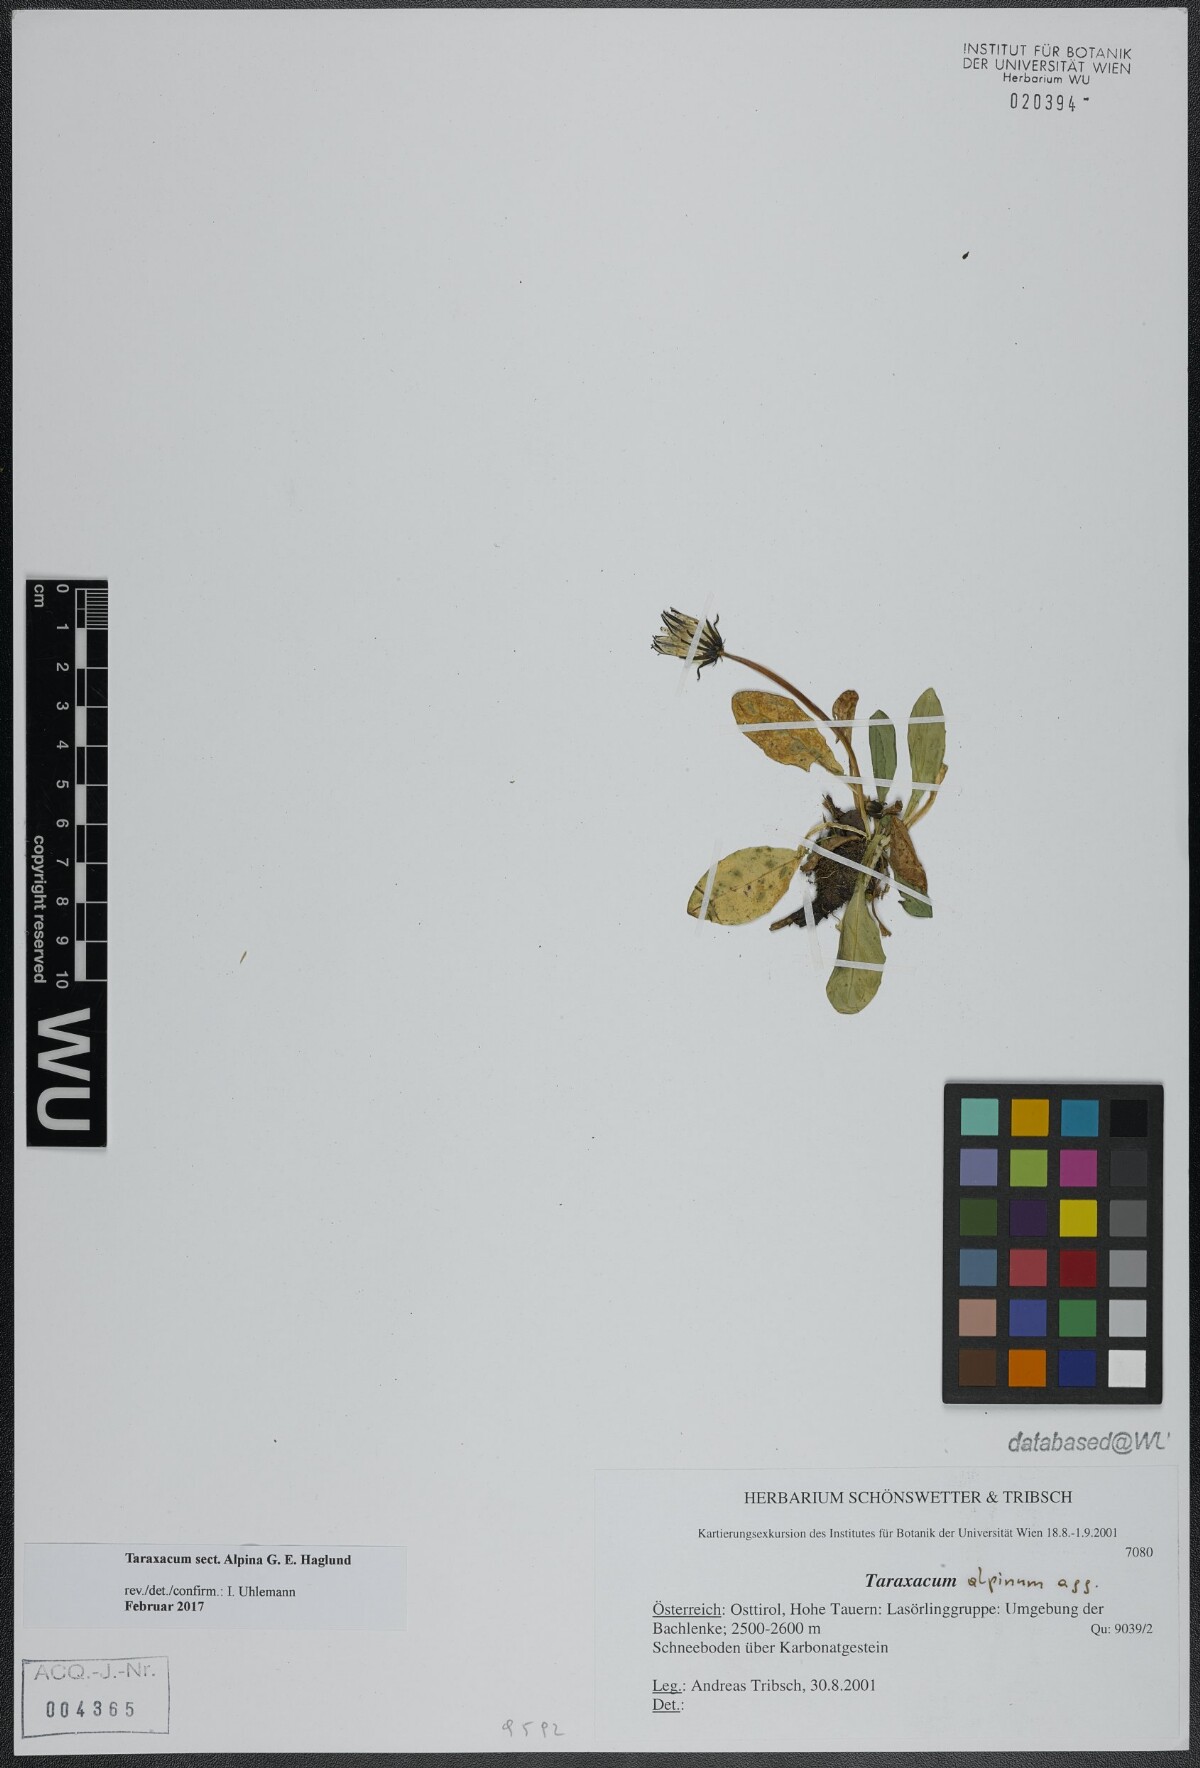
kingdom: Plantae
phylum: Tracheophyta
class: Magnoliopsida
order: Asterales
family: Asteraceae
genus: Taraxacum
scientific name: Taraxacum
